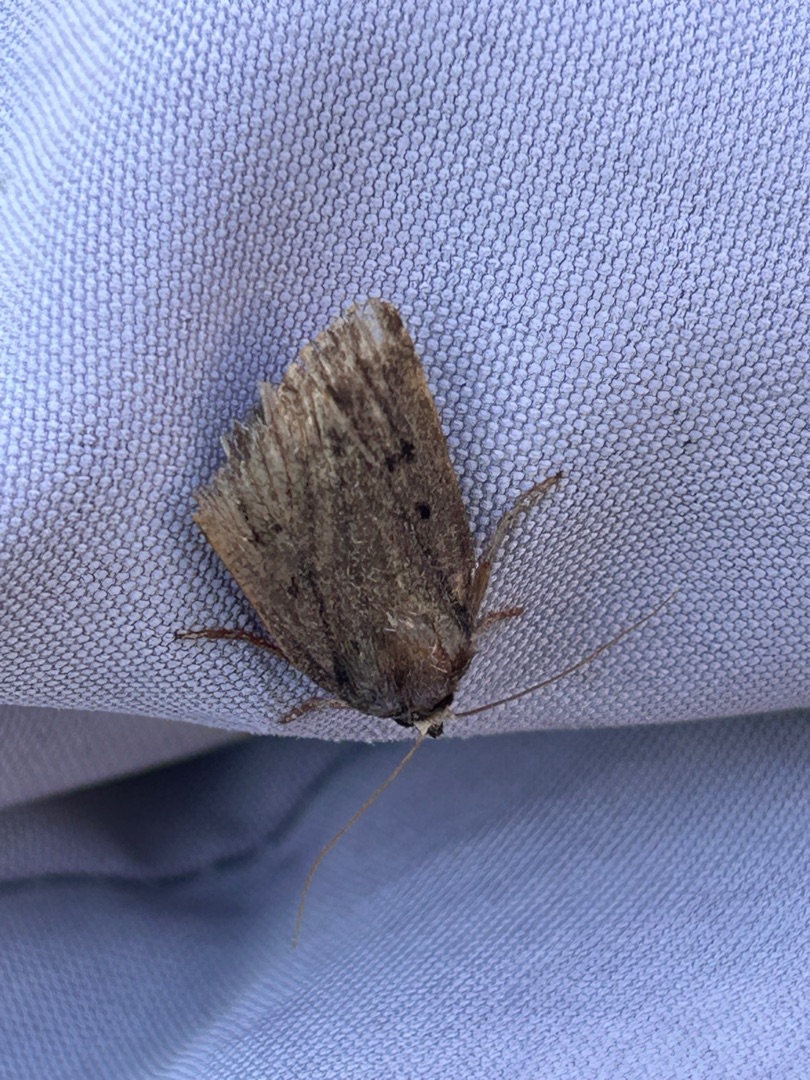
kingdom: Animalia
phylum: Arthropoda
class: Insecta
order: Lepidoptera
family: Noctuidae
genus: Amphipyra
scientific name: Amphipyra tragopoginis
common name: Blyantsugle
